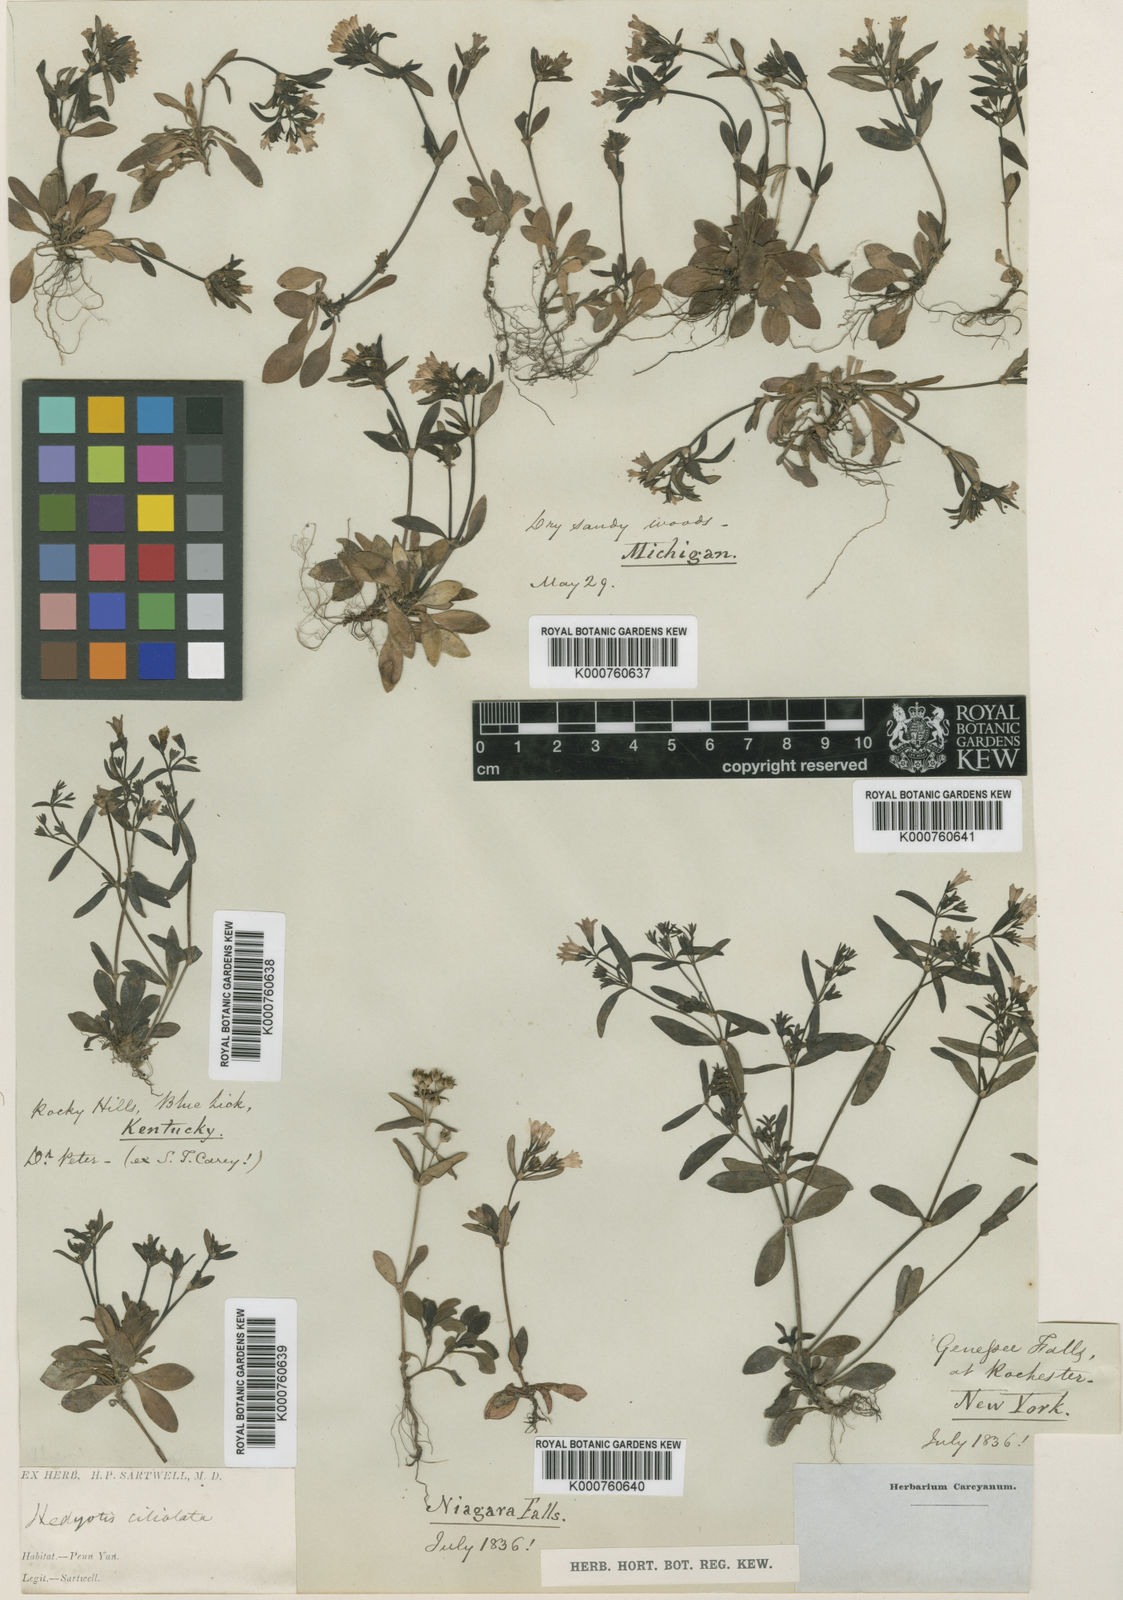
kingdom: Plantae
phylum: Tracheophyta
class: Magnoliopsida
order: Gentianales
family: Rubiaceae
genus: Houstonia
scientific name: Houstonia
